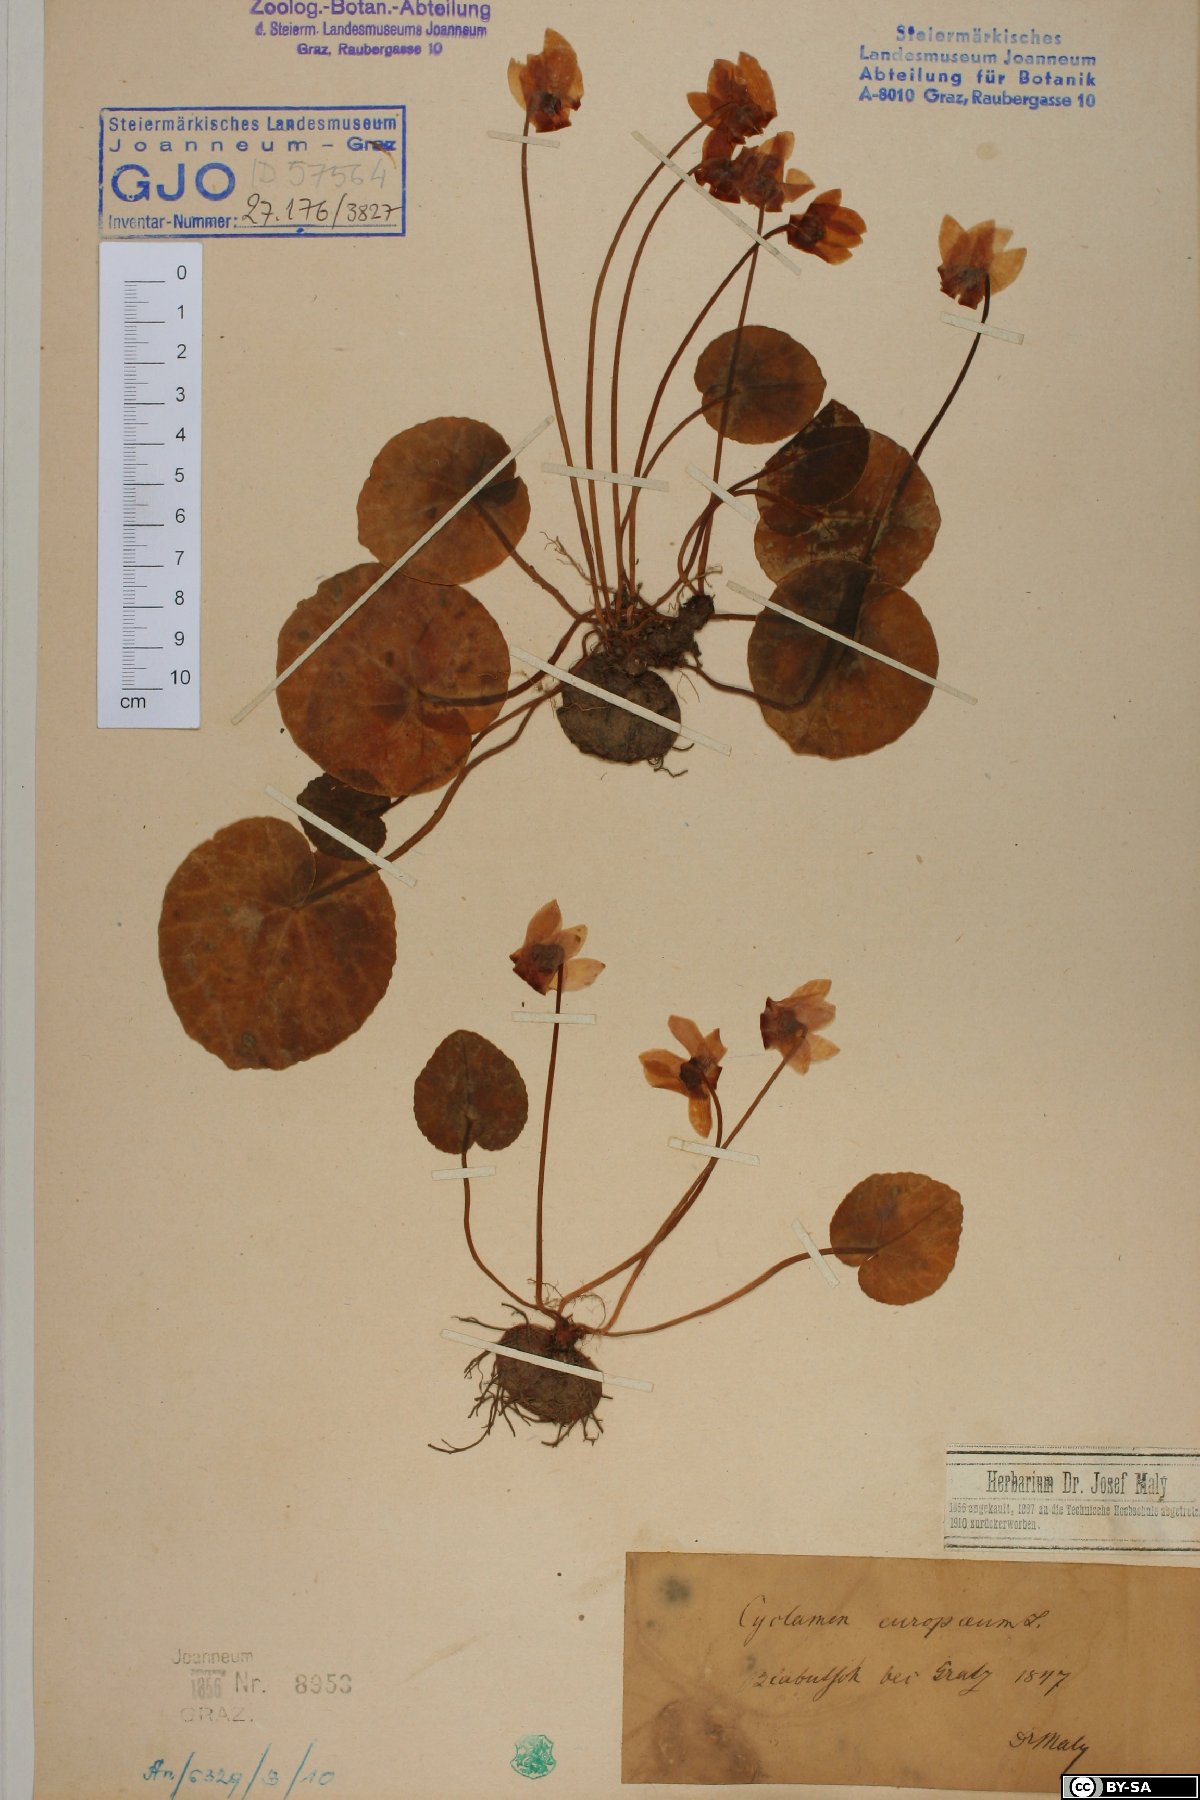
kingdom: Plantae
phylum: Tracheophyta
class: Magnoliopsida
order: Ericales
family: Primulaceae
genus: Cyclamen
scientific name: Cyclamen purpurascens
